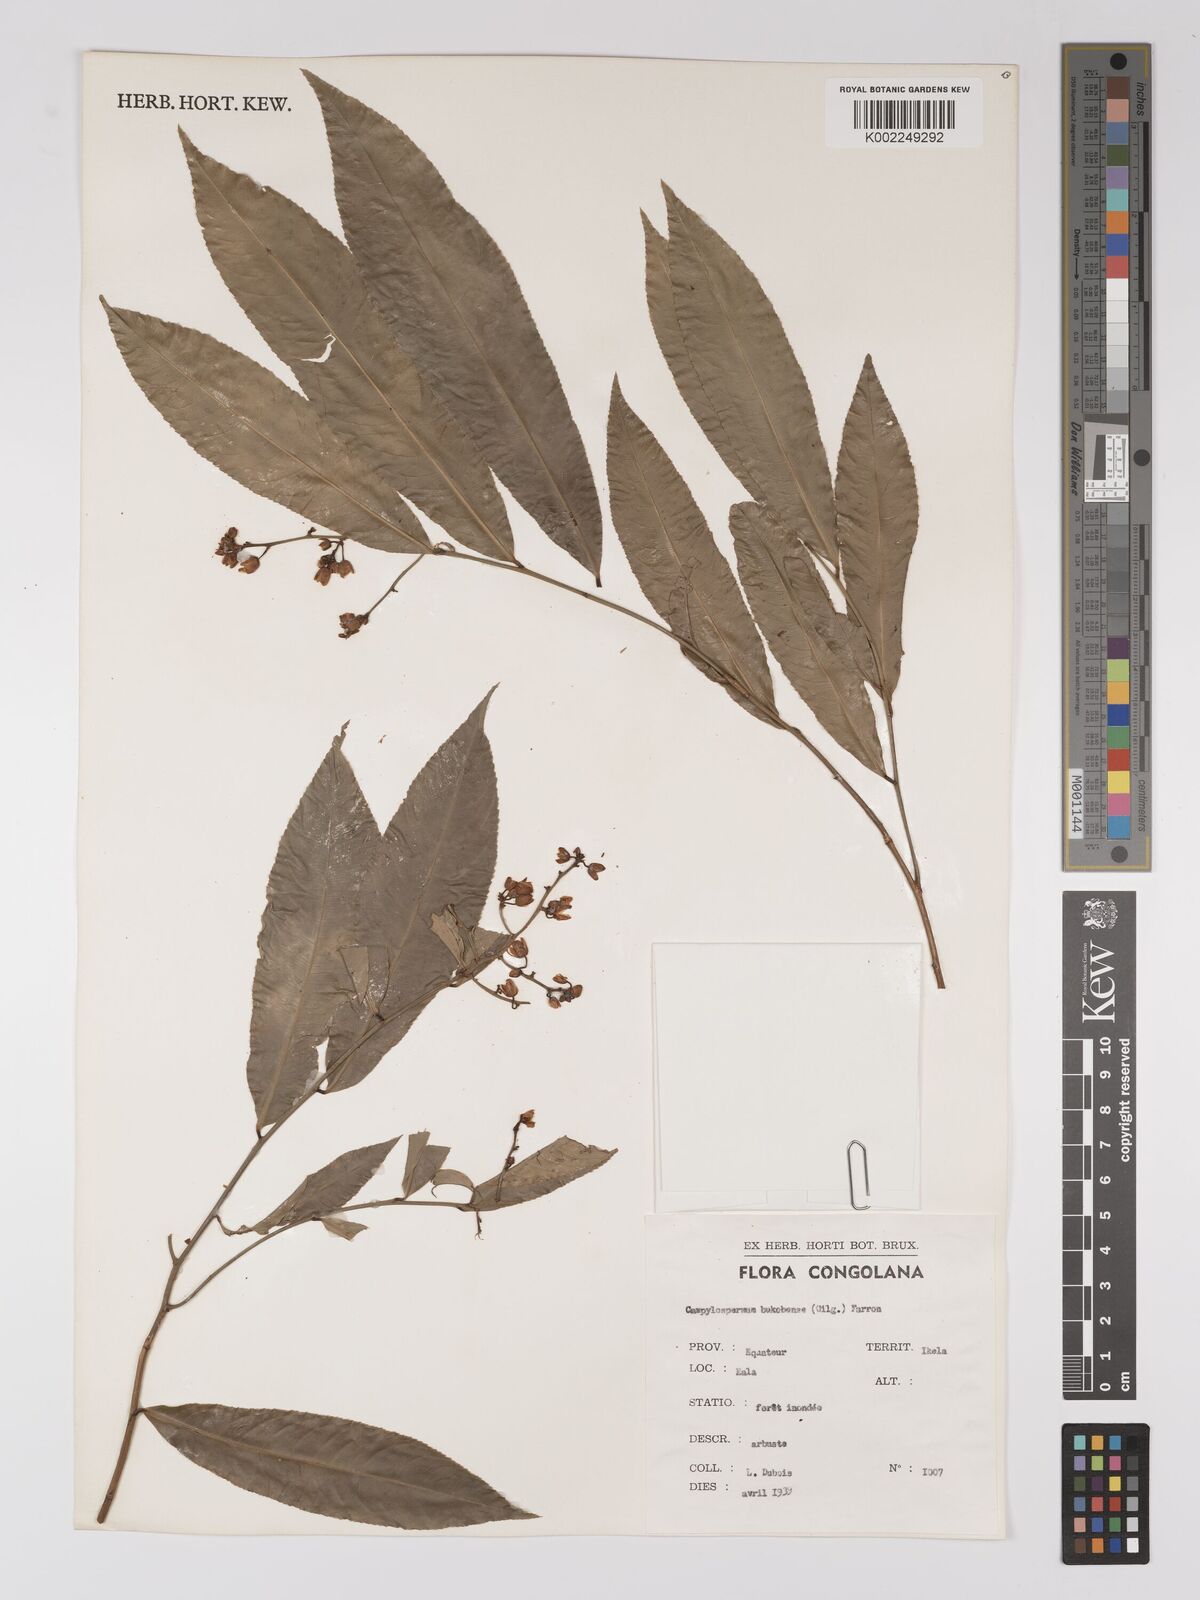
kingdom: Plantae
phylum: Tracheophyta
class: Magnoliopsida
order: Malpighiales
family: Ochnaceae
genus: Campylospermum
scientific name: Campylospermum likimiense
